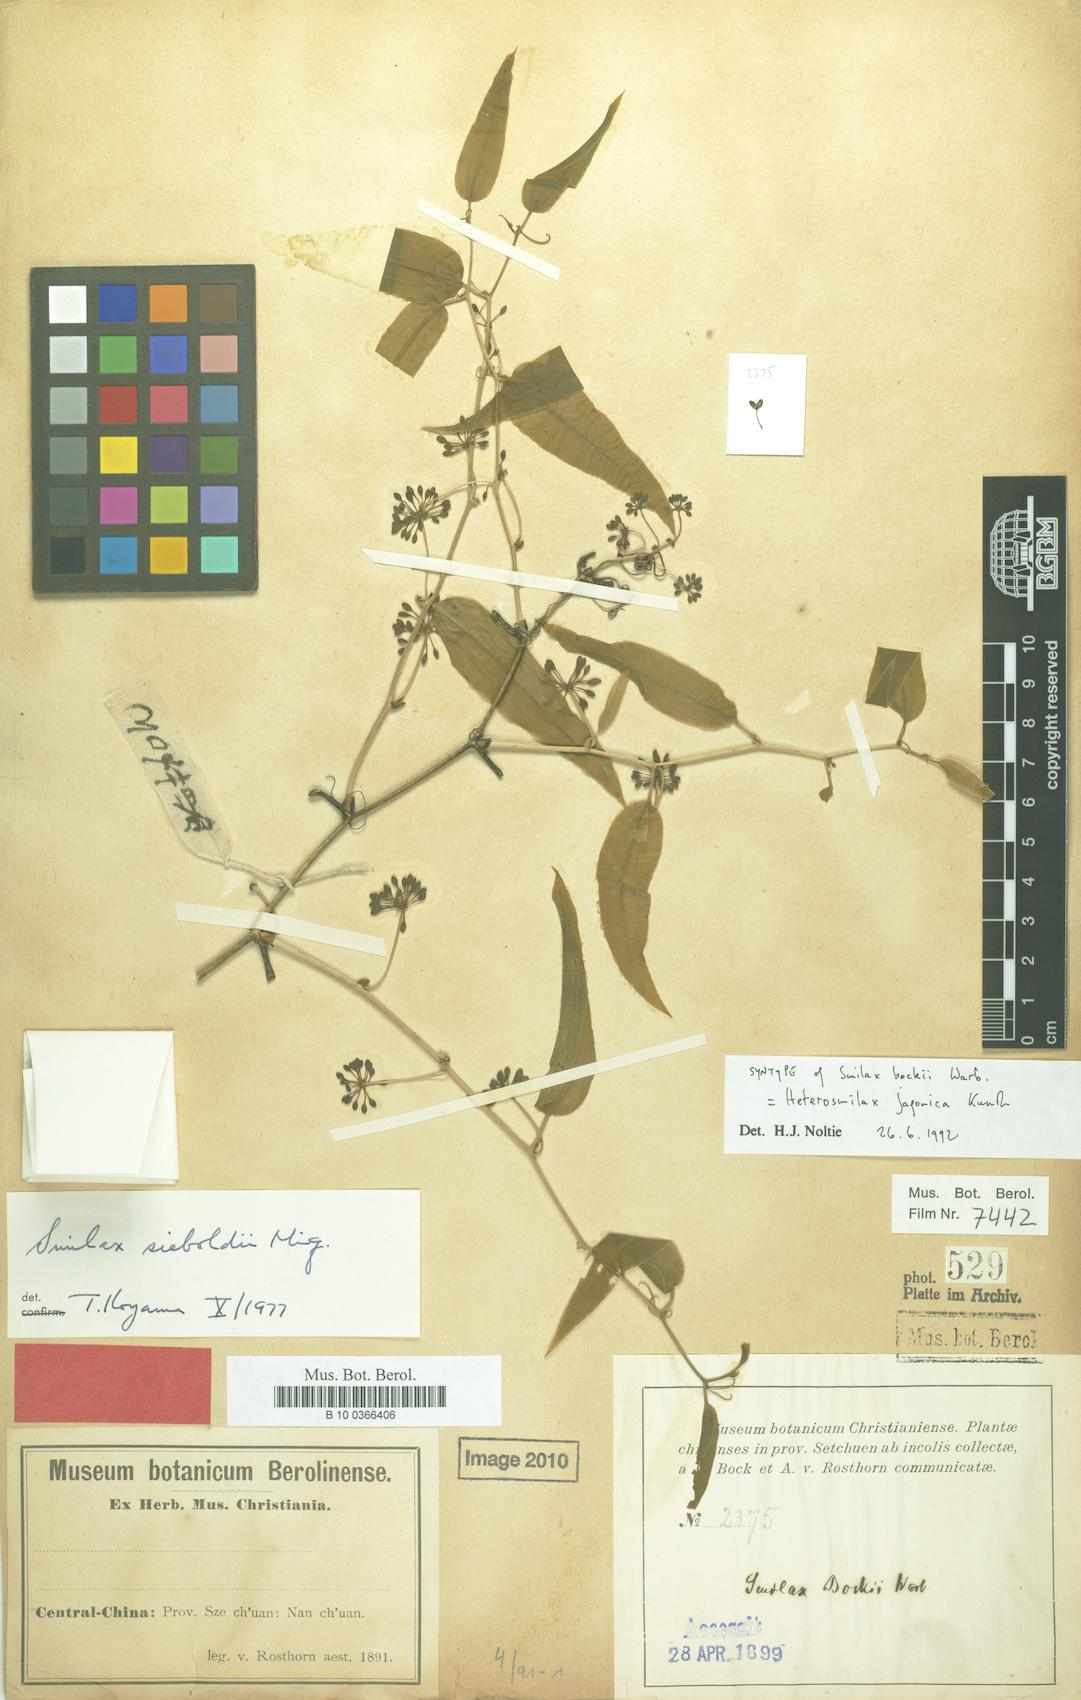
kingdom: Plantae
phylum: Tracheophyta
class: Liliopsida
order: Liliales
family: Smilacaceae
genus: Smilax
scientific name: Smilax bockii
